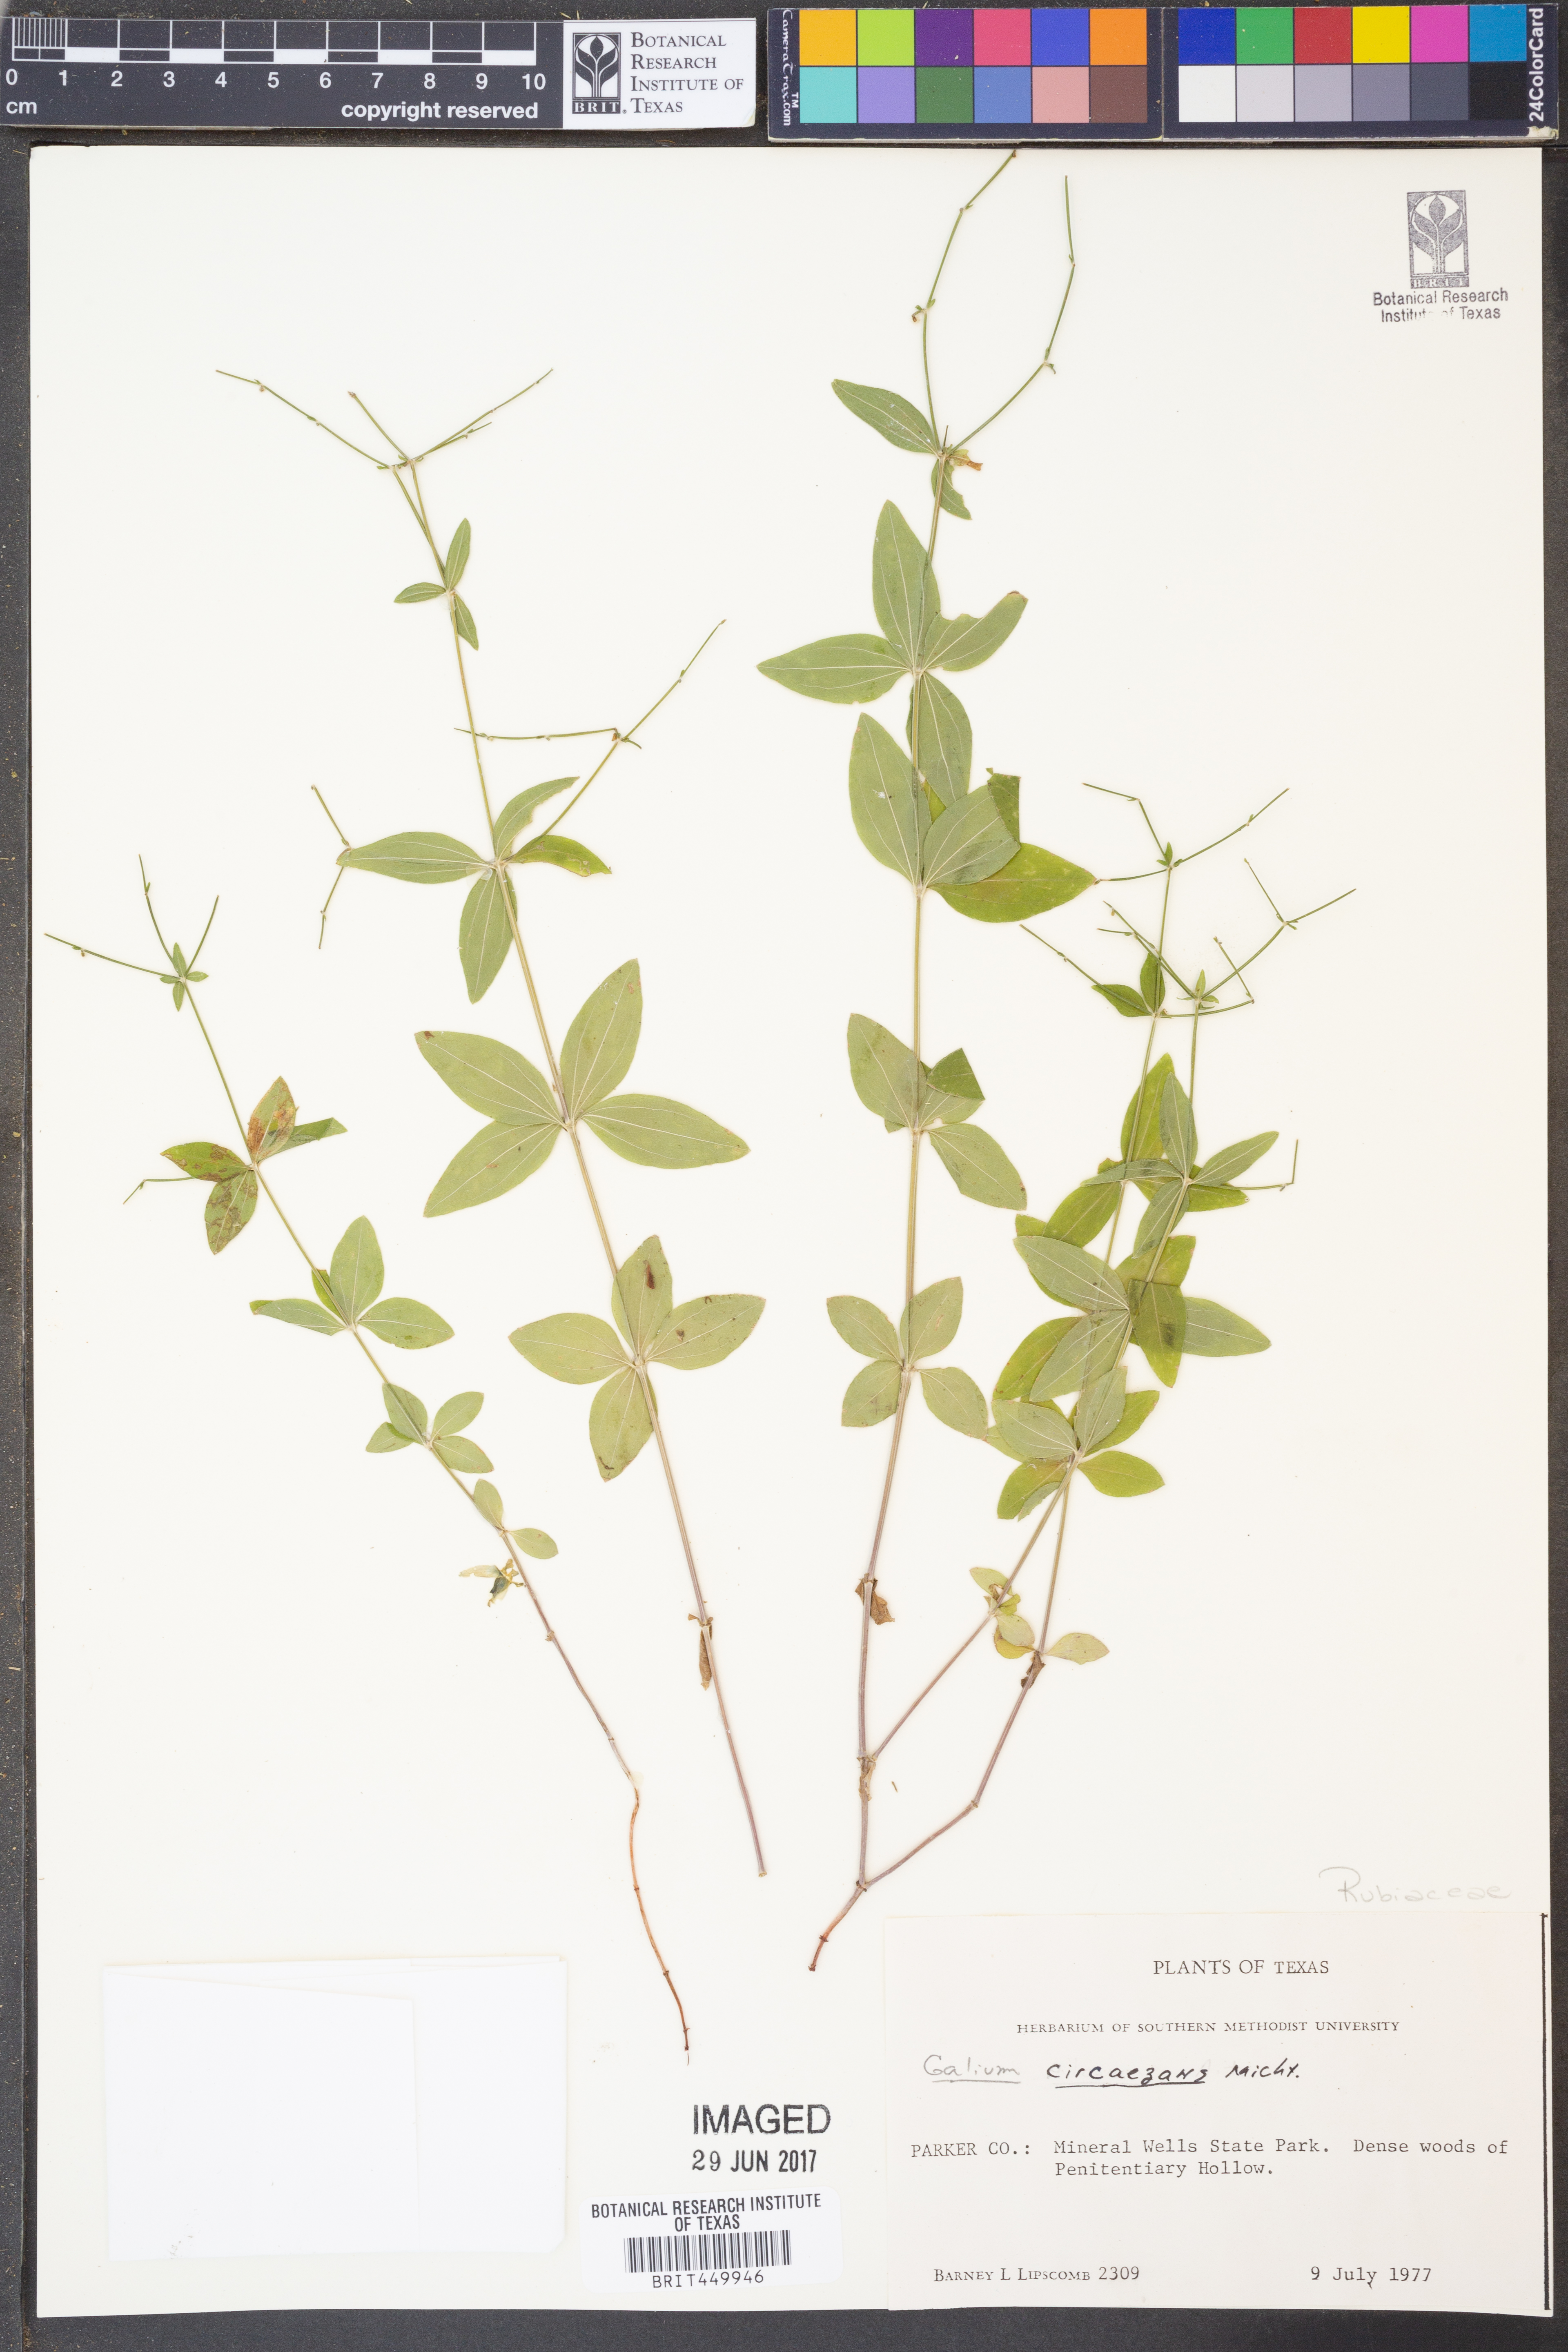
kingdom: Plantae
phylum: Tracheophyta
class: Magnoliopsida
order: Gentianales
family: Rubiaceae
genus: Galium
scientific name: Galium circaezans
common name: Forest bedstraw
